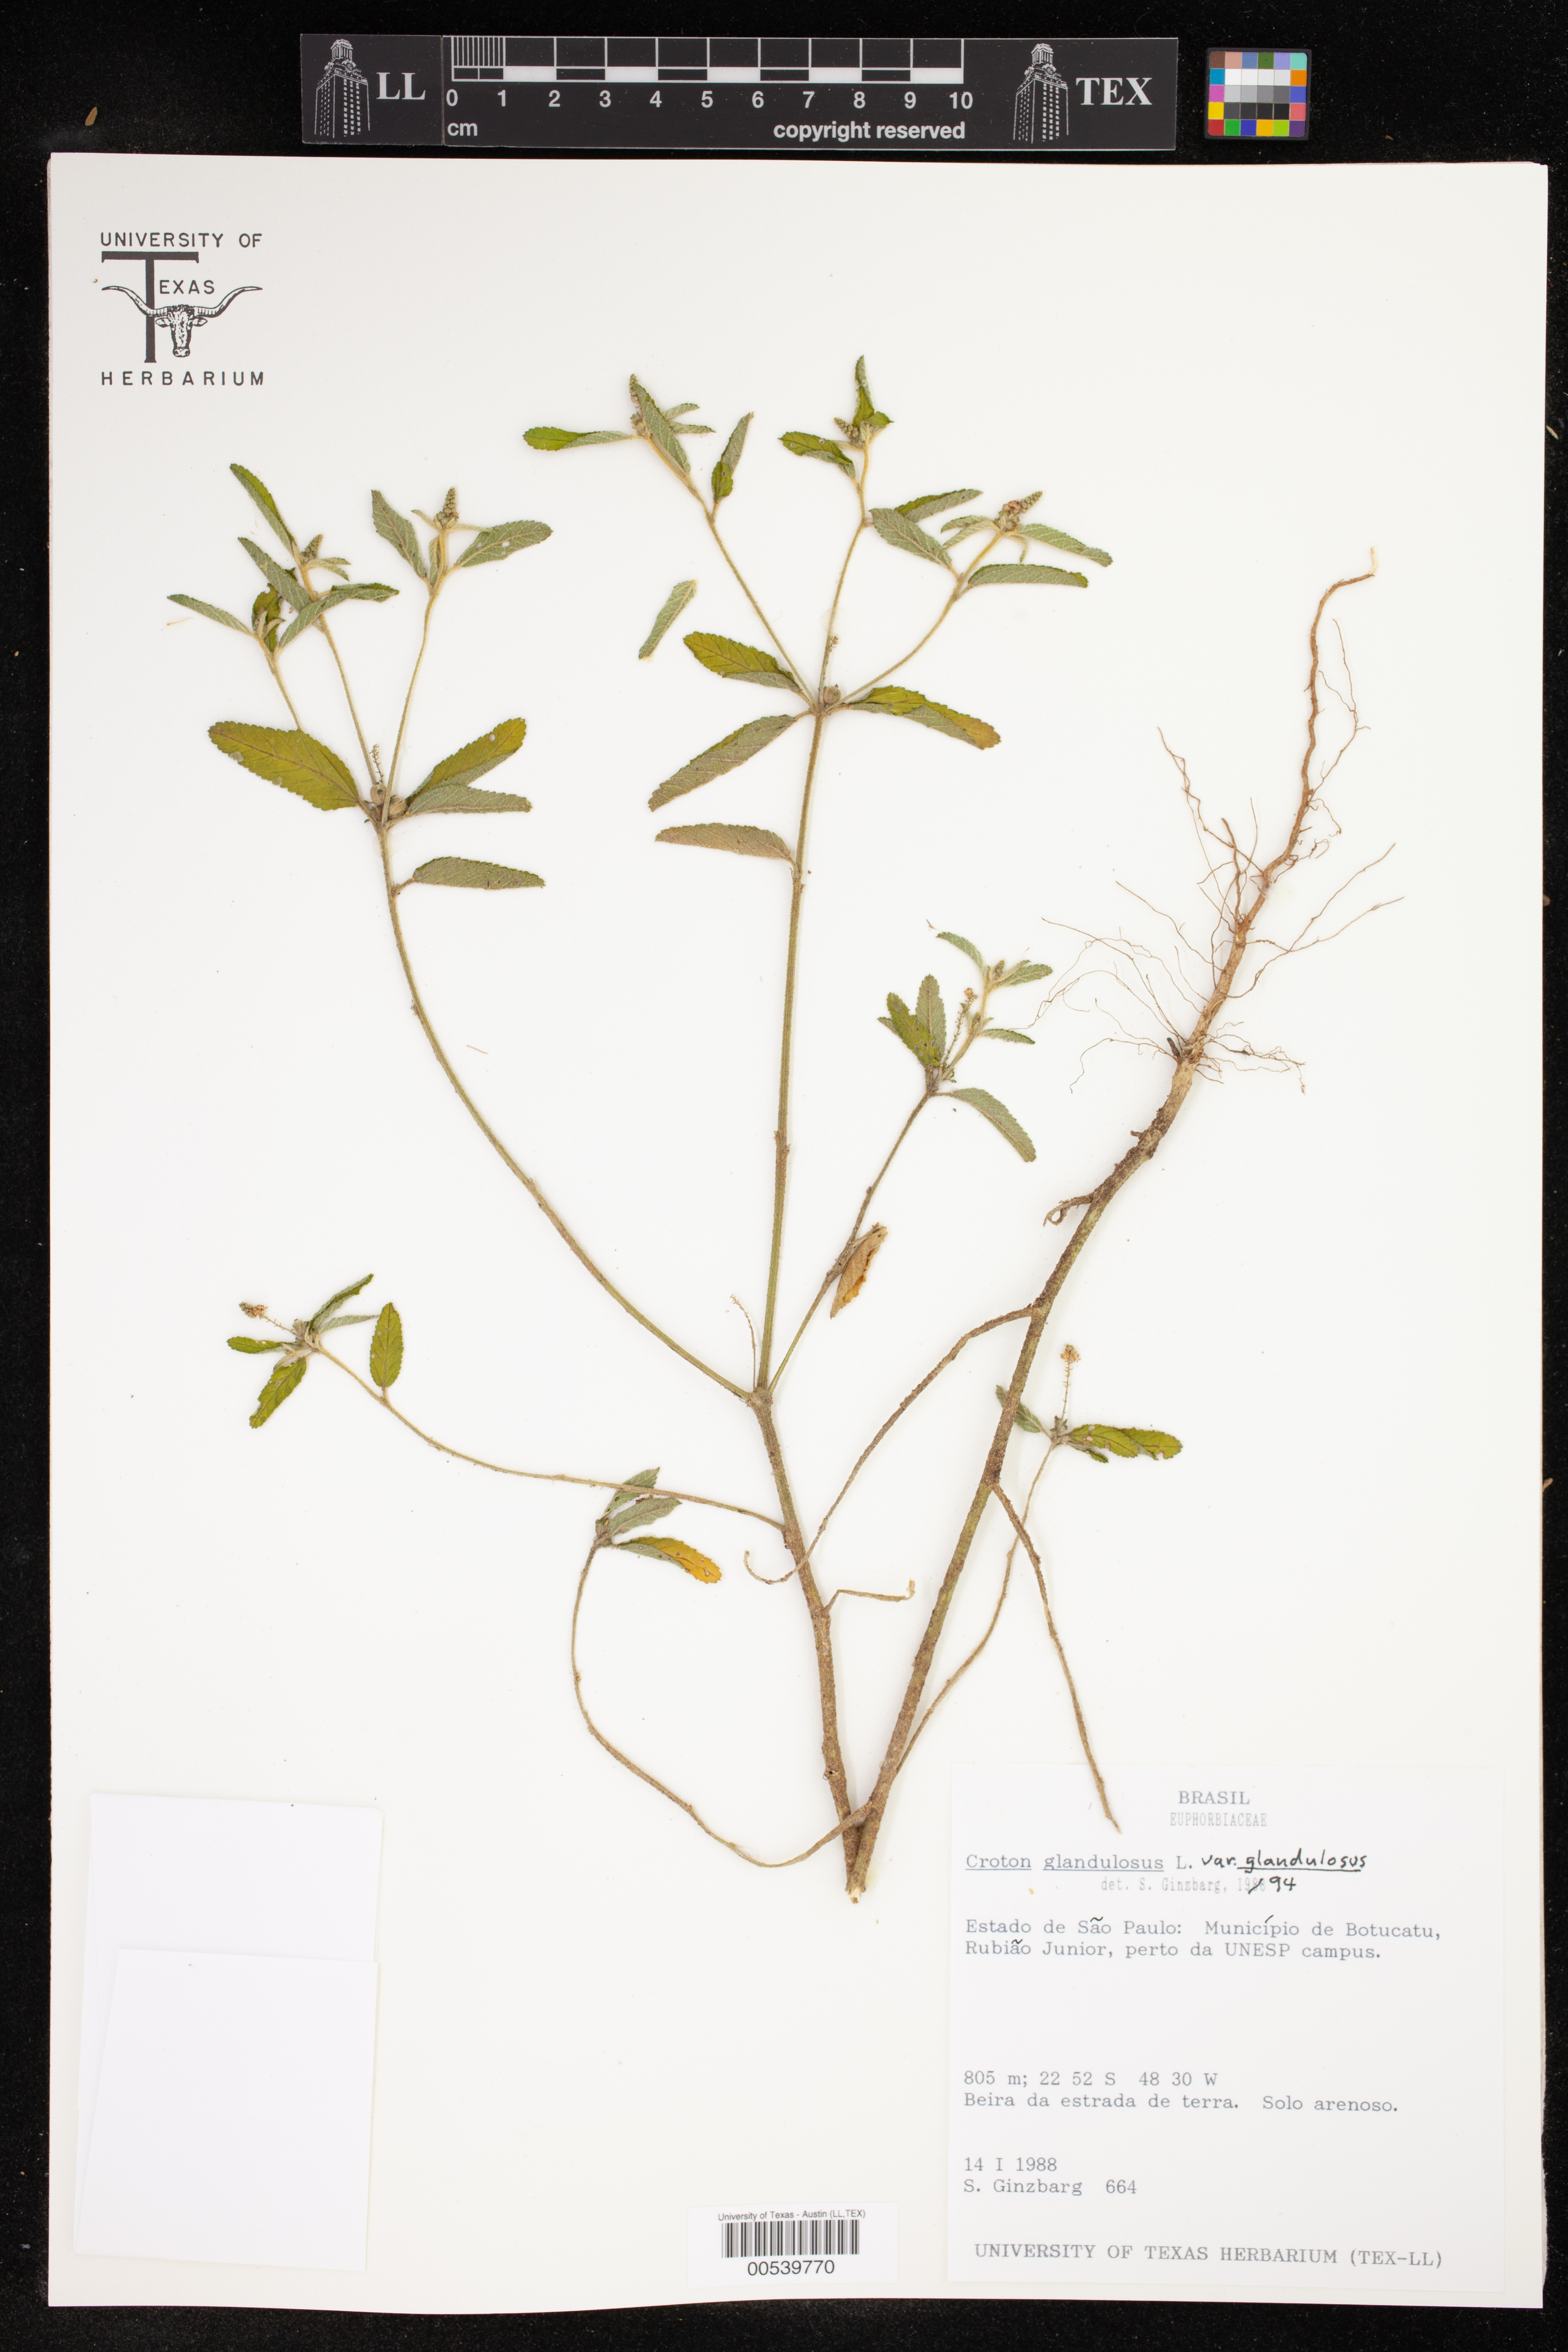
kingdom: Plantae
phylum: Tracheophyta
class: Magnoliopsida
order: Malpighiales
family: Euphorbiaceae
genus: Croton
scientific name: Croton glandulosus
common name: Tropic croton
